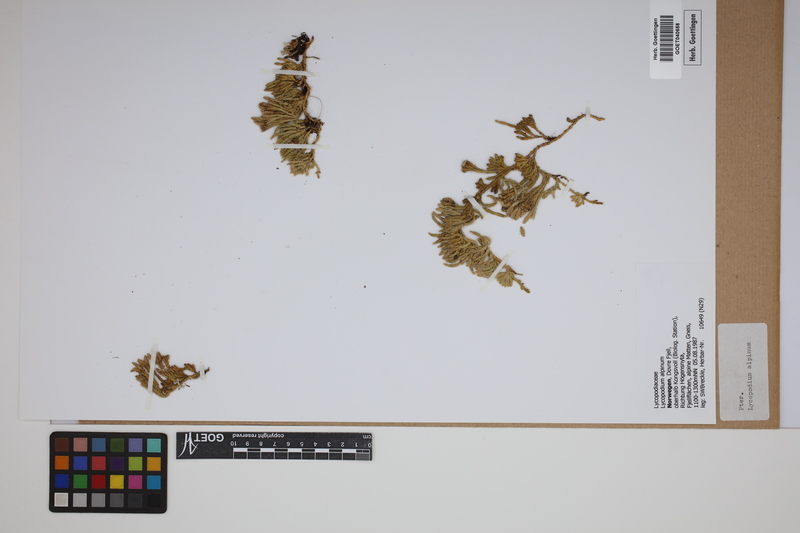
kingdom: Plantae
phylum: Tracheophyta
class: Lycopodiopsida
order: Lycopodiales
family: Lycopodiaceae
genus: Diphasiastrum
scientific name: Diphasiastrum alpinum
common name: Alpine clubmoss
